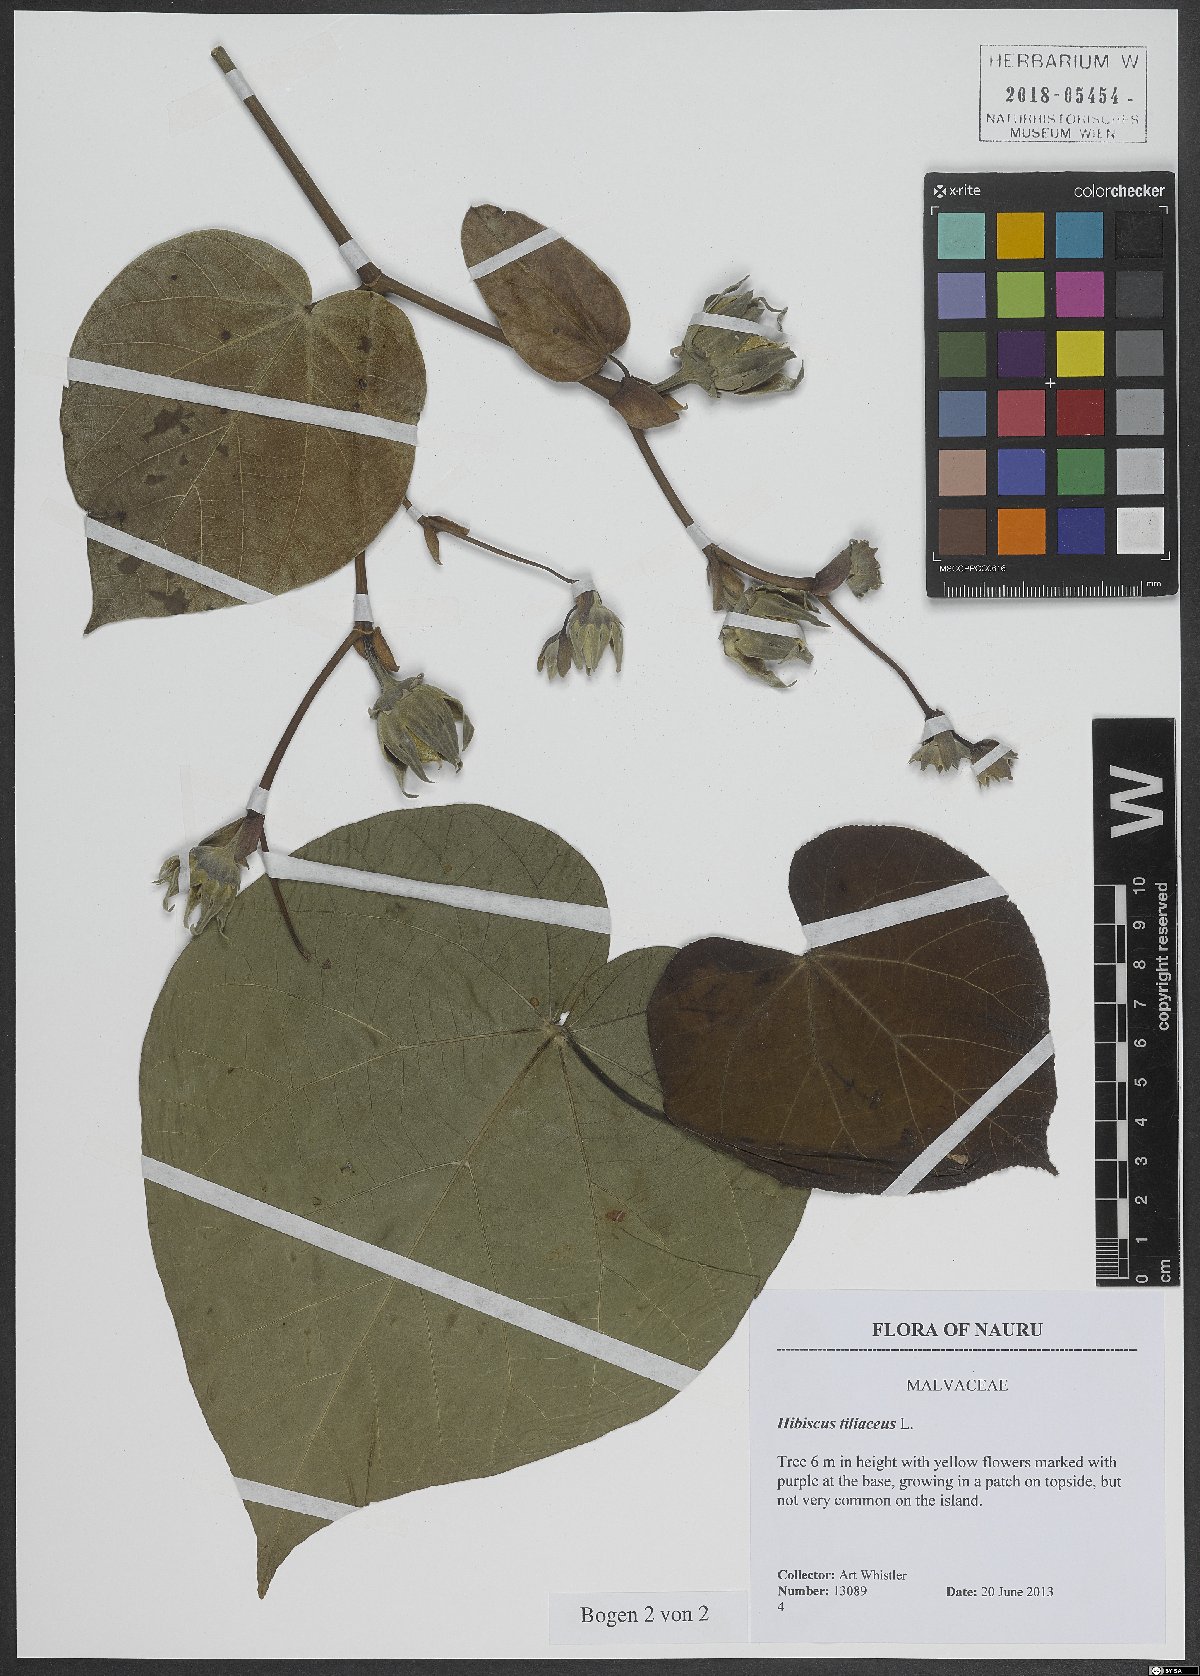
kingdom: Plantae
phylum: Tracheophyta
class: Magnoliopsida
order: Malvales
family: Malvaceae
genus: Talipariti
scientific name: Talipariti tiliaceum
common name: Sea hibiscus
